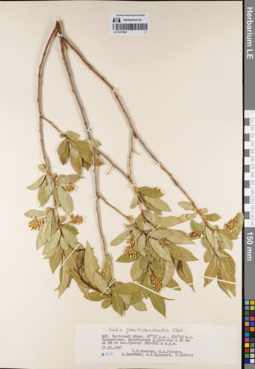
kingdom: Plantae
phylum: Tracheophyta
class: Magnoliopsida
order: Malpighiales
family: Salicaceae
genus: Salix
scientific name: Salix pseudopentandra
